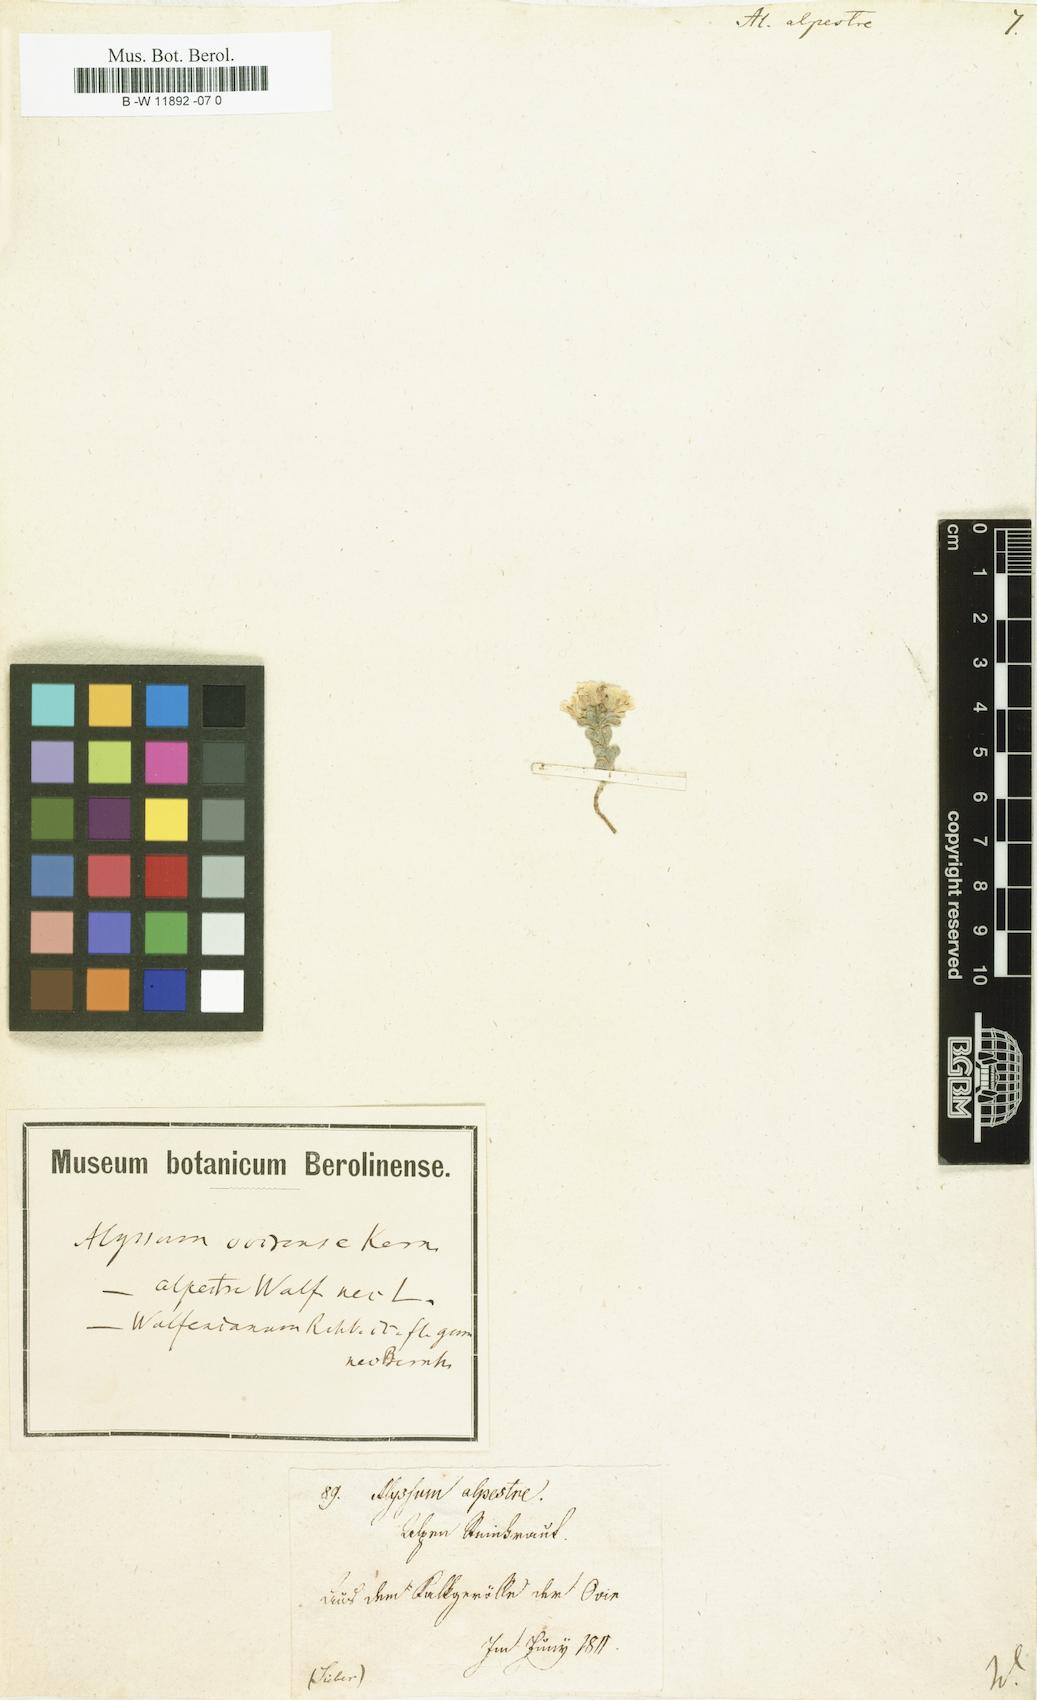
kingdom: Plantae
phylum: Tracheophyta
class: Magnoliopsida
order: Brassicales
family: Brassicaceae
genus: Odontarrhena
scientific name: Odontarrhena alpestris
